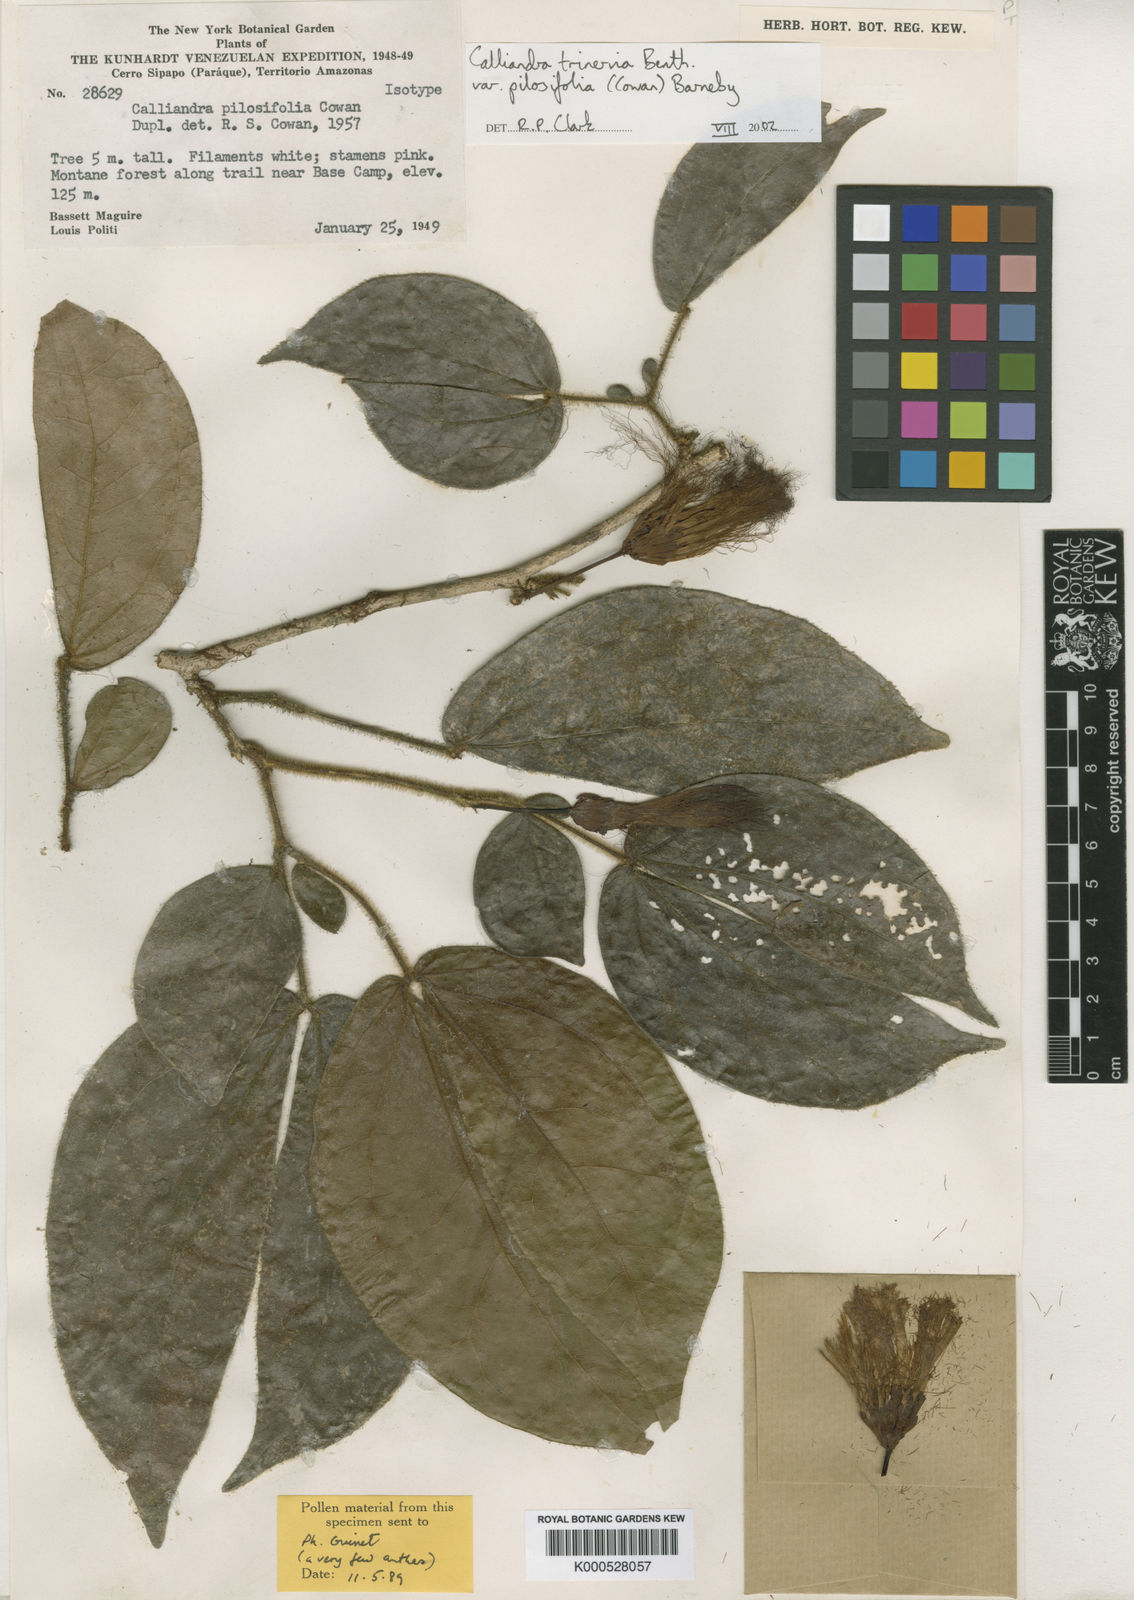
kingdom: Plantae
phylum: Tracheophyta
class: Magnoliopsida
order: Fabales
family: Fabaceae
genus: Calliandra
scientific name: Calliandra trinervia
